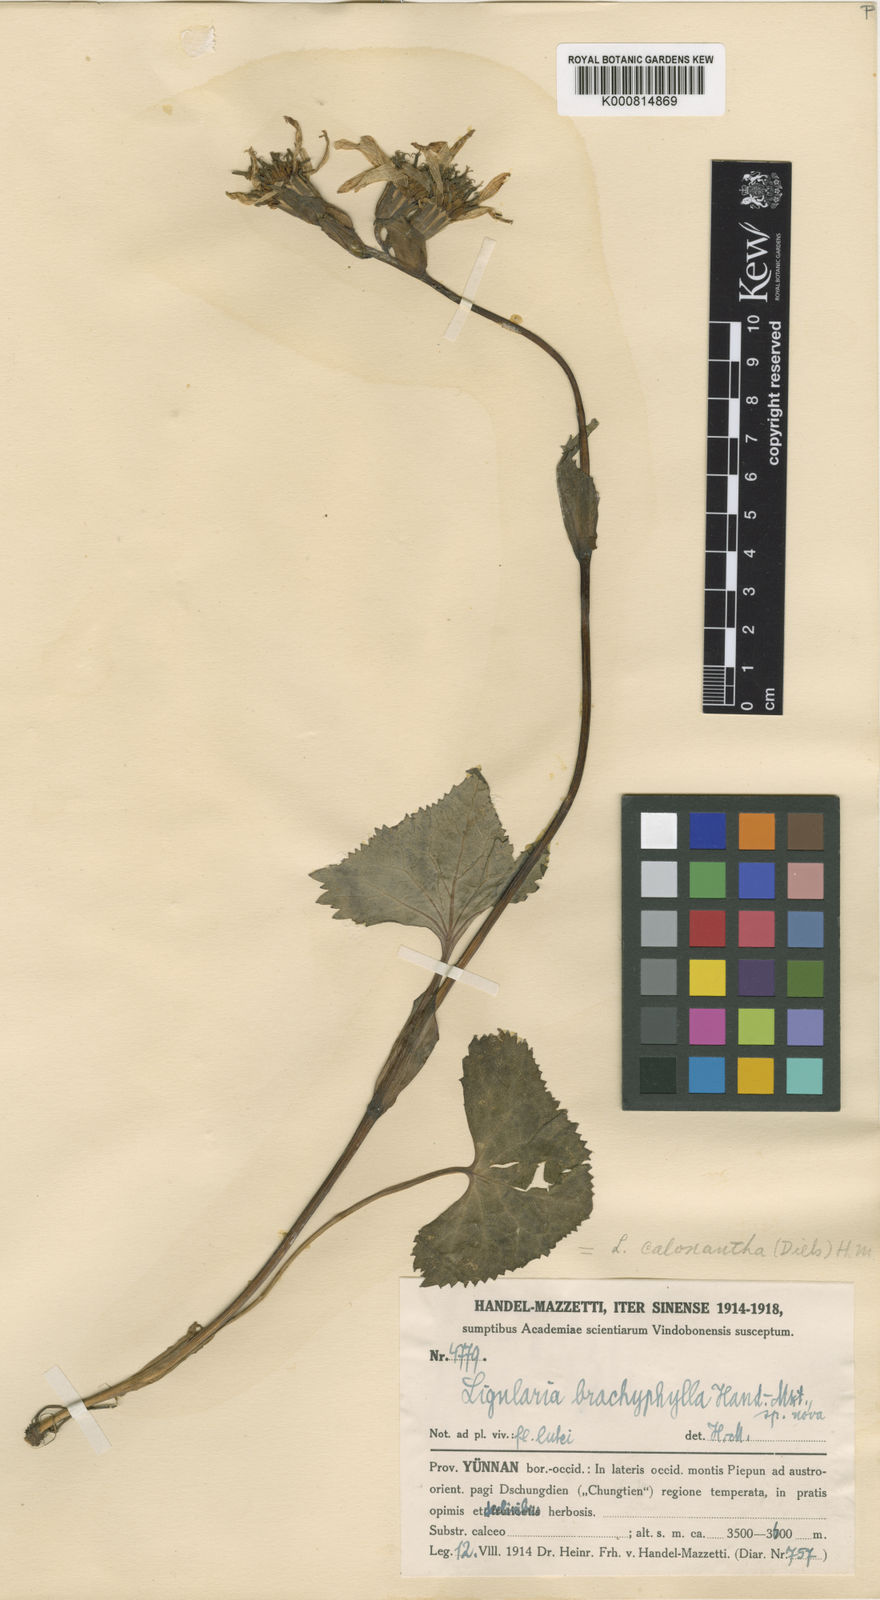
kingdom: Plantae
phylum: Tracheophyta
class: Magnoliopsida
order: Asterales
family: Asteraceae
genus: Ligularia
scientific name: Ligularia latihastata
